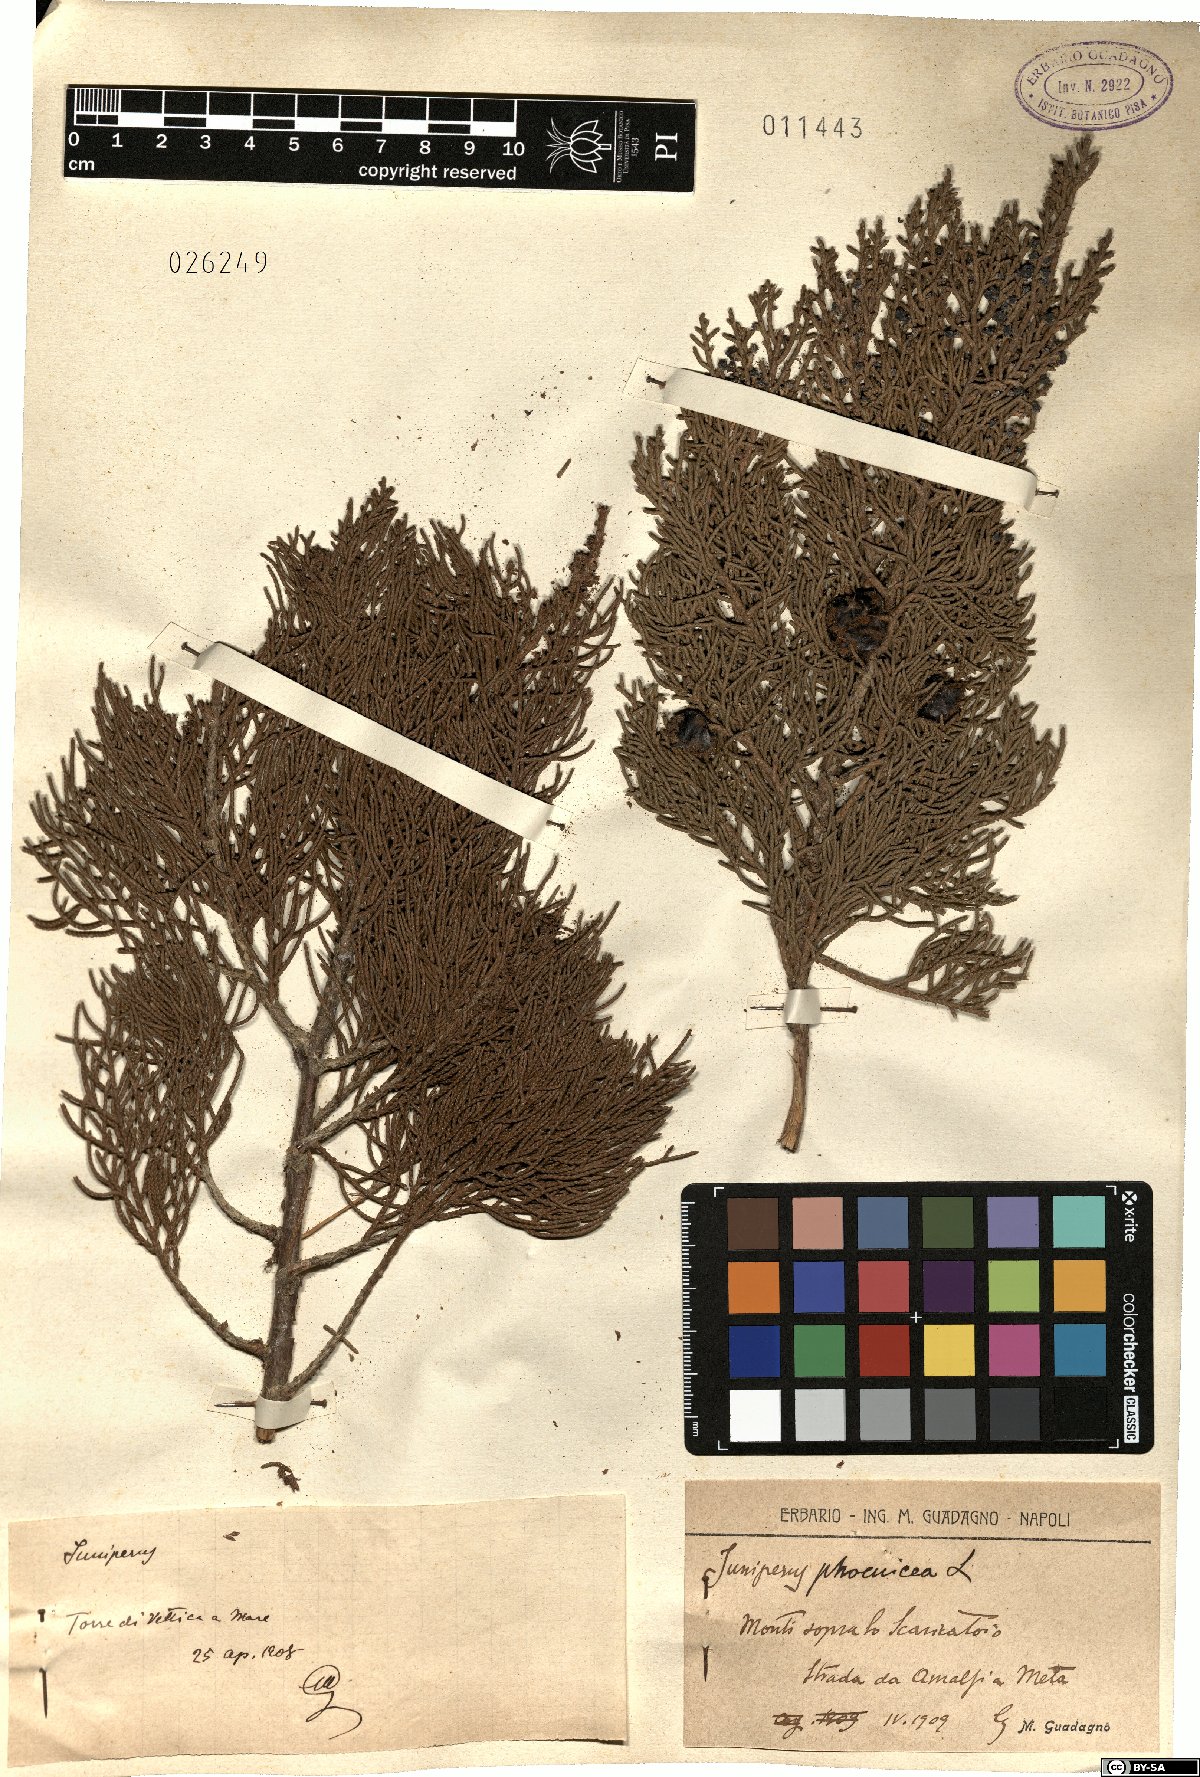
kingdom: Plantae
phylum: Tracheophyta
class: Pinopsida
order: Pinales
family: Cupressaceae
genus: Juniperus
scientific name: Juniperus phoenicea
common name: Phoenician juniper
